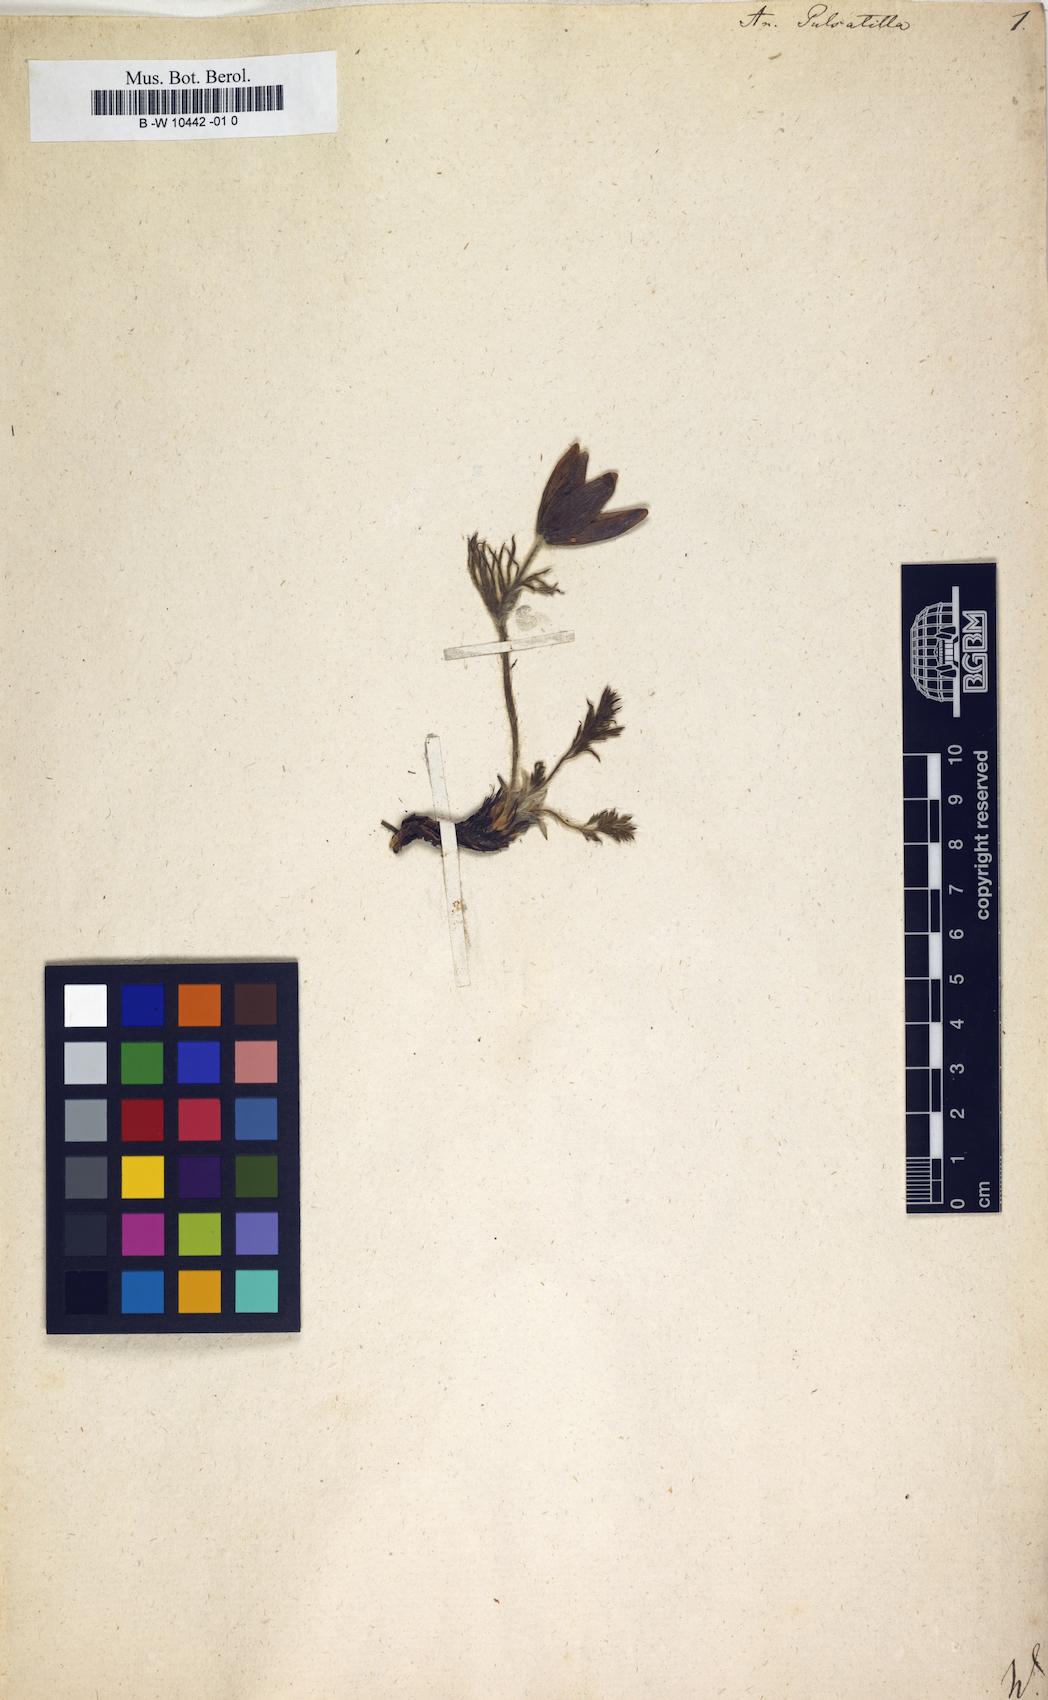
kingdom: Plantae
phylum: Tracheophyta
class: Magnoliopsida
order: Ranunculales
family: Ranunculaceae
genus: Pulsatilla
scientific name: Pulsatilla vulgaris
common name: Pasqueflower
